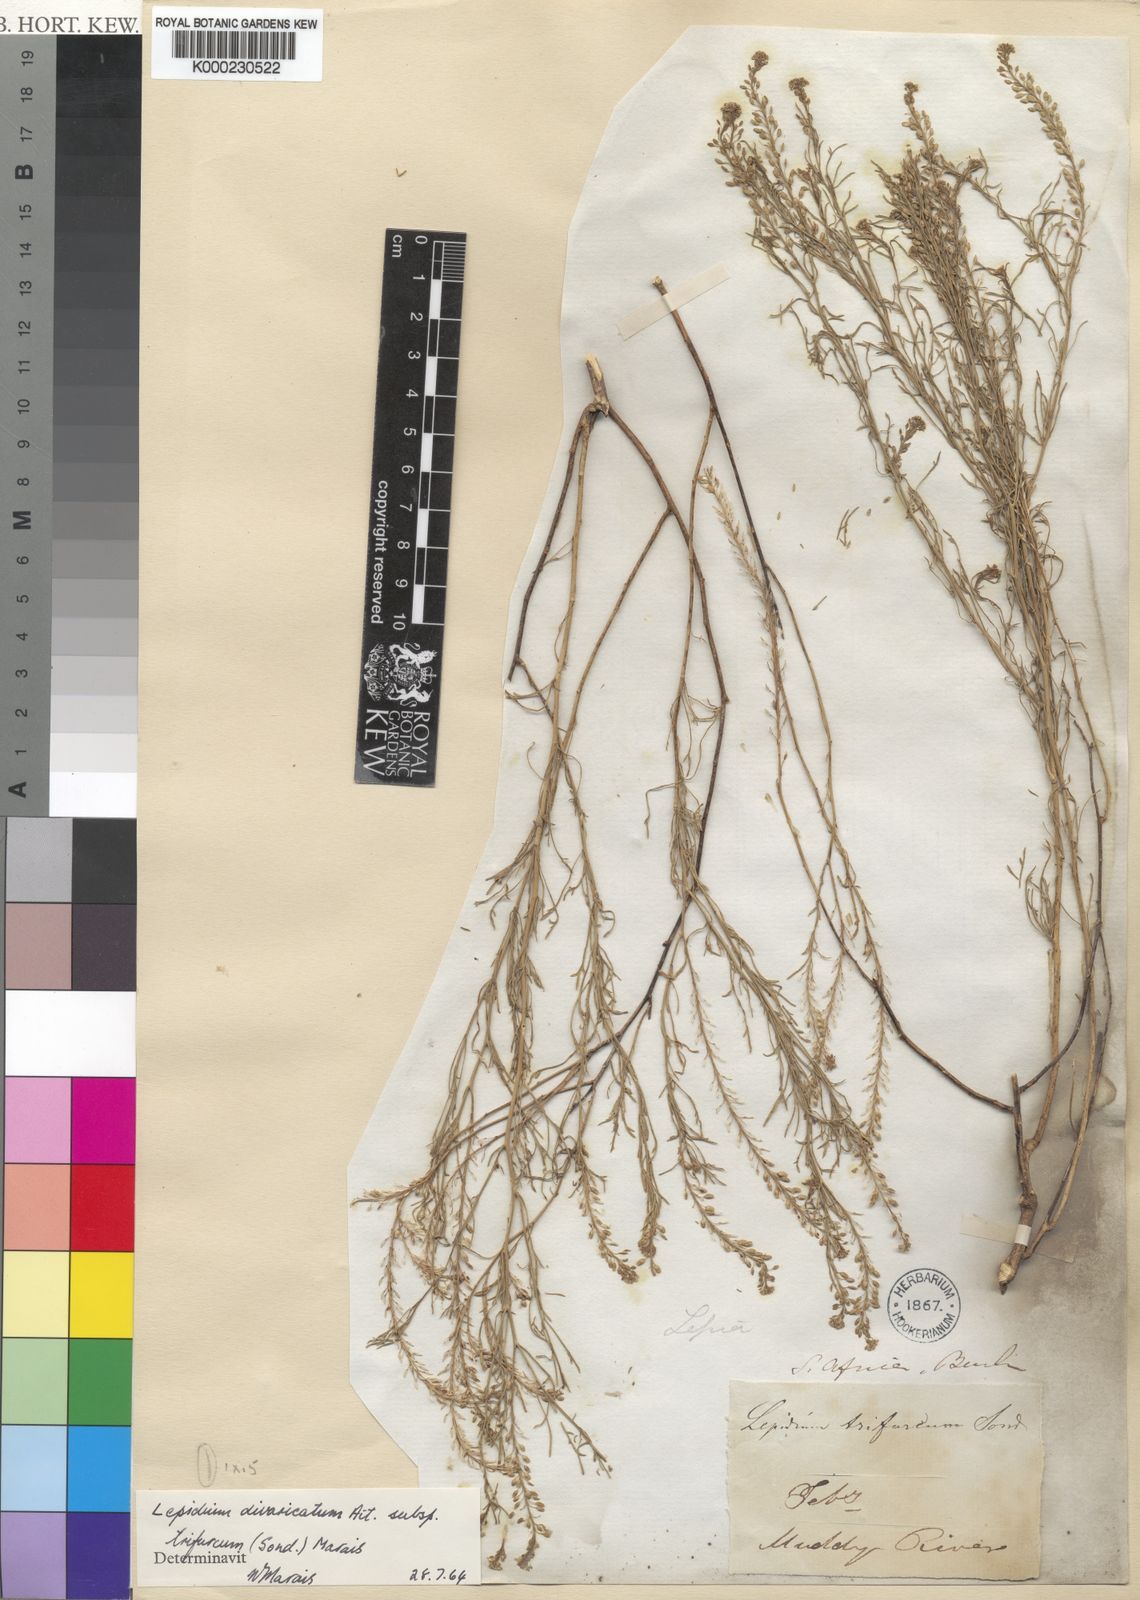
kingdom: Plantae
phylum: Tracheophyta
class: Magnoliopsida
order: Brassicales
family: Brassicaceae
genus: Lepidium
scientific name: Lepidium divaricatum
